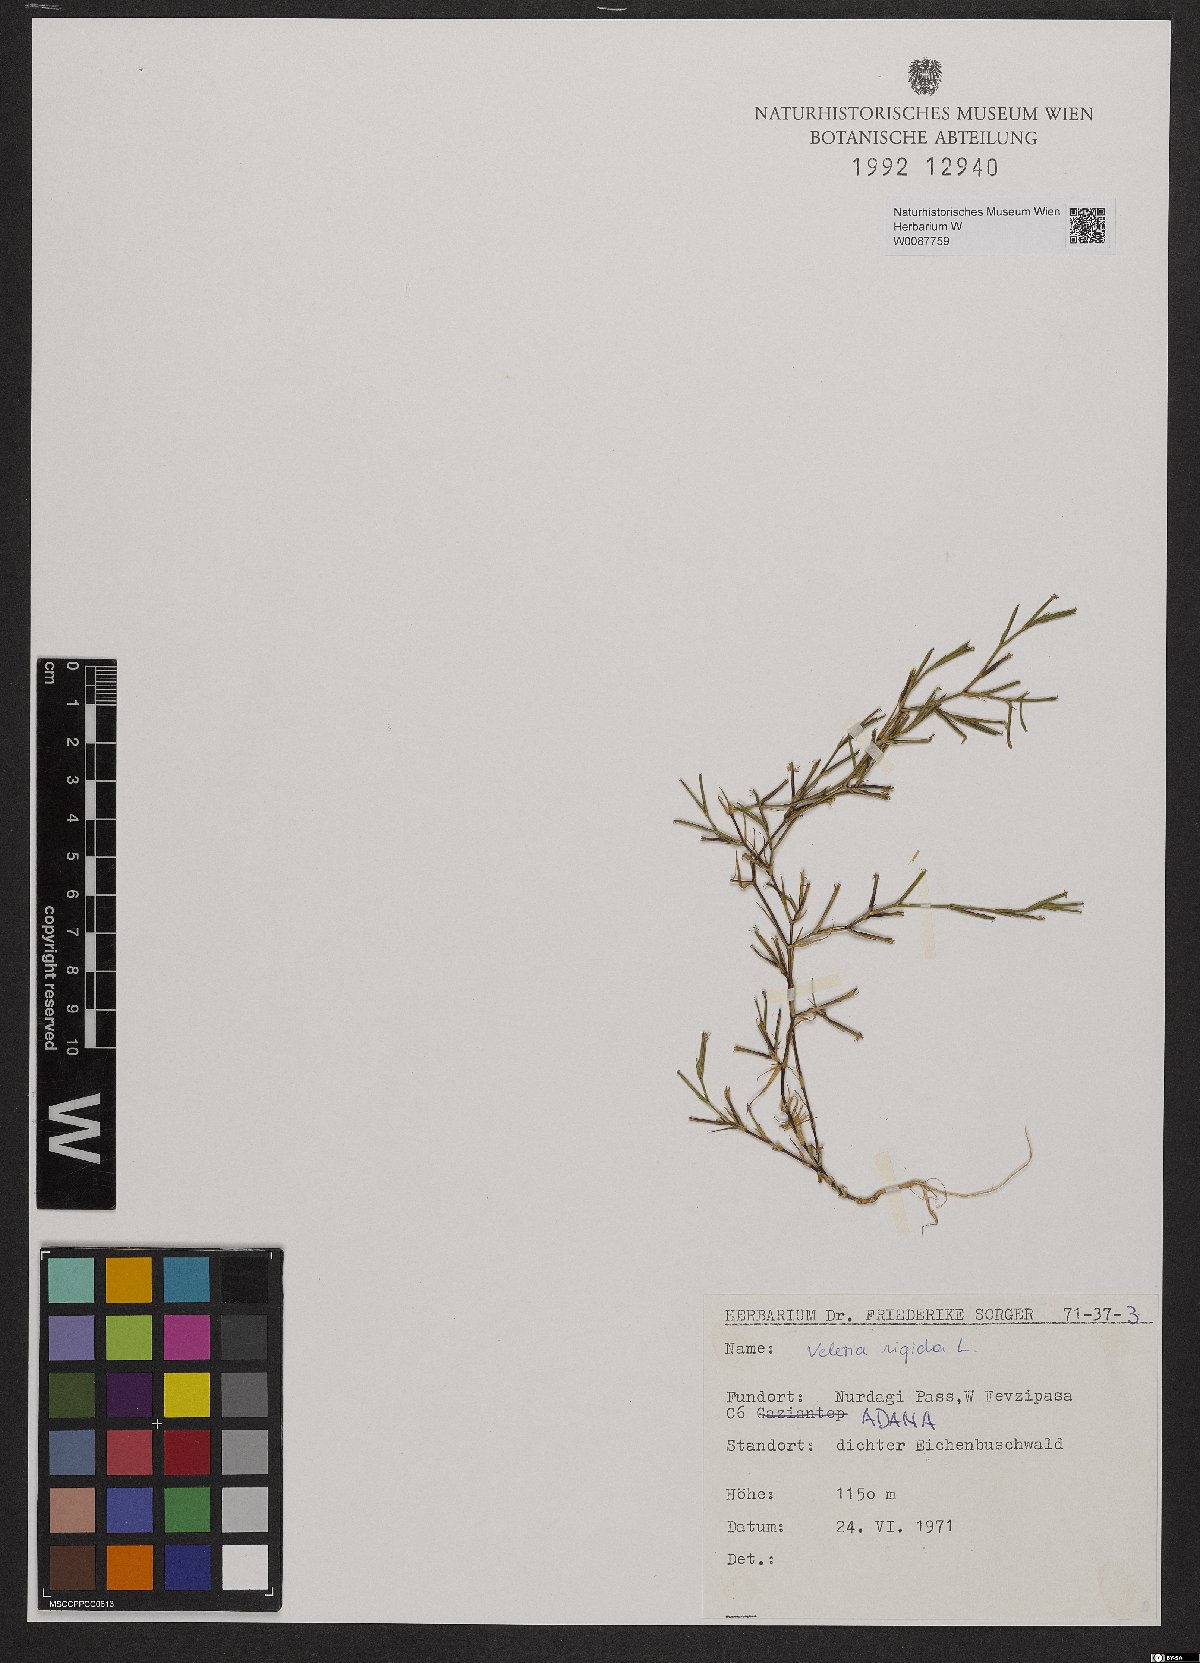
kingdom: Plantae
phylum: Tracheophyta
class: Magnoliopsida
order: Caryophyllales
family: Caryophyllaceae
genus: Dianthus
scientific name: Dianthus nudiflorus
